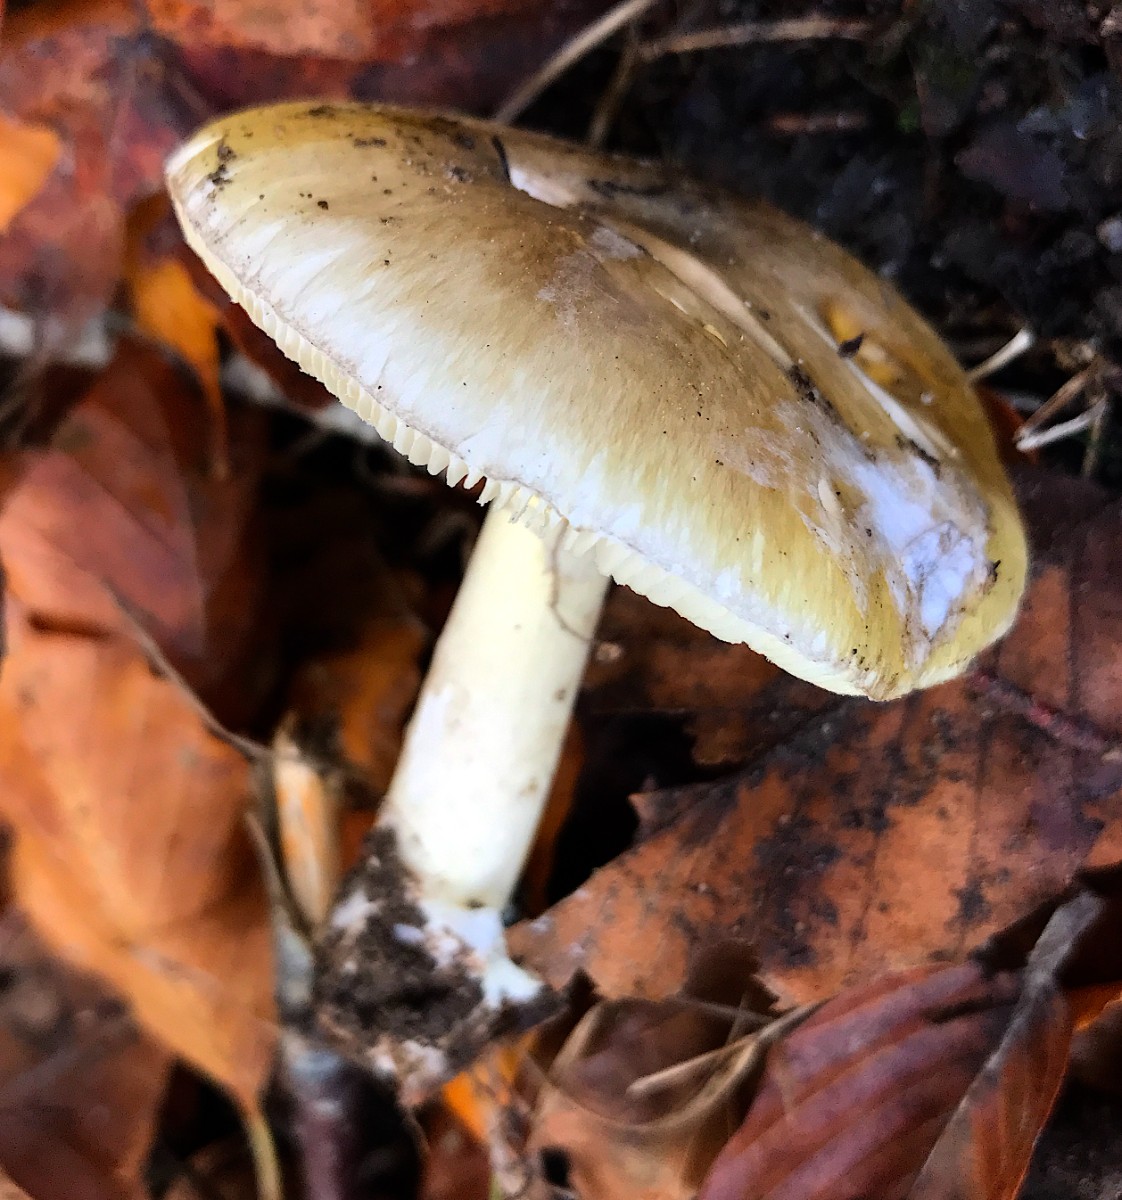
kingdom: Fungi
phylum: Basidiomycota
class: Agaricomycetes
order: Agaricales
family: Amanitaceae
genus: Amanita
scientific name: Amanita phalloides
